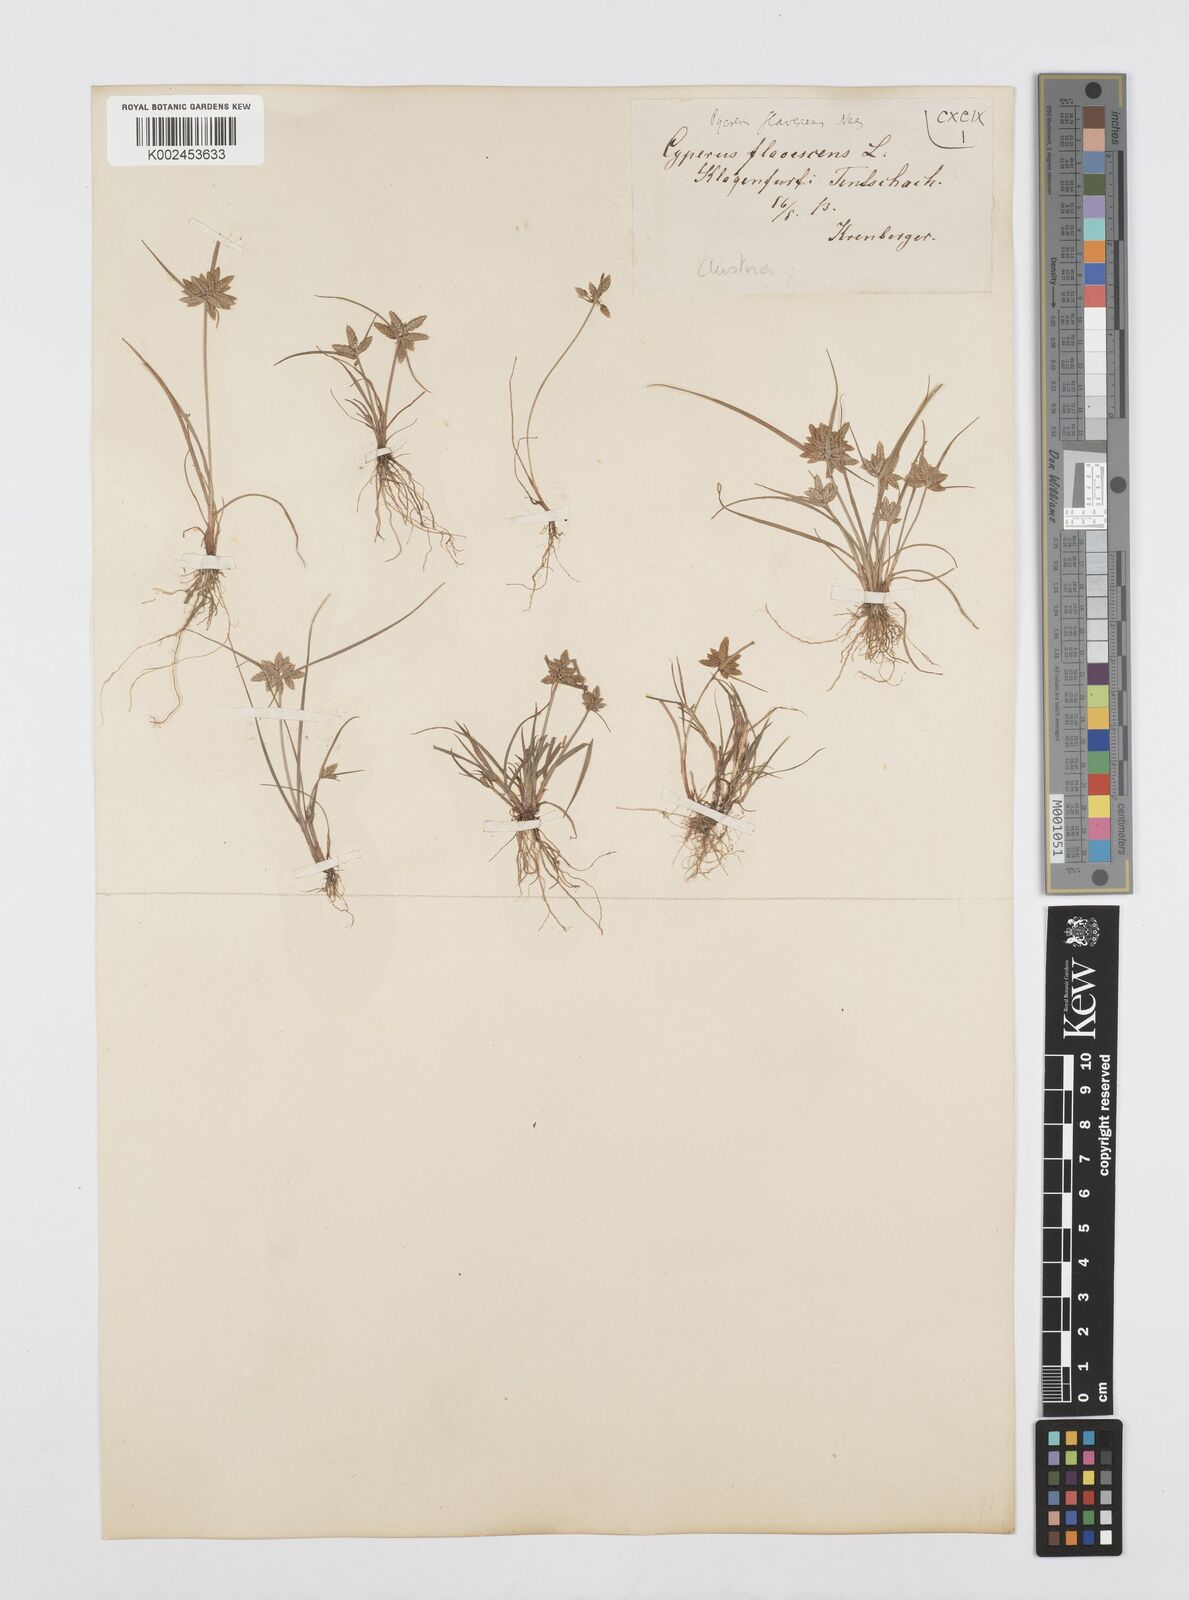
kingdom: Plantae
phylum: Tracheophyta
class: Liliopsida
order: Poales
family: Cyperaceae
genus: Cyperus
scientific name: Cyperus flavescens
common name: Yellow galingale
